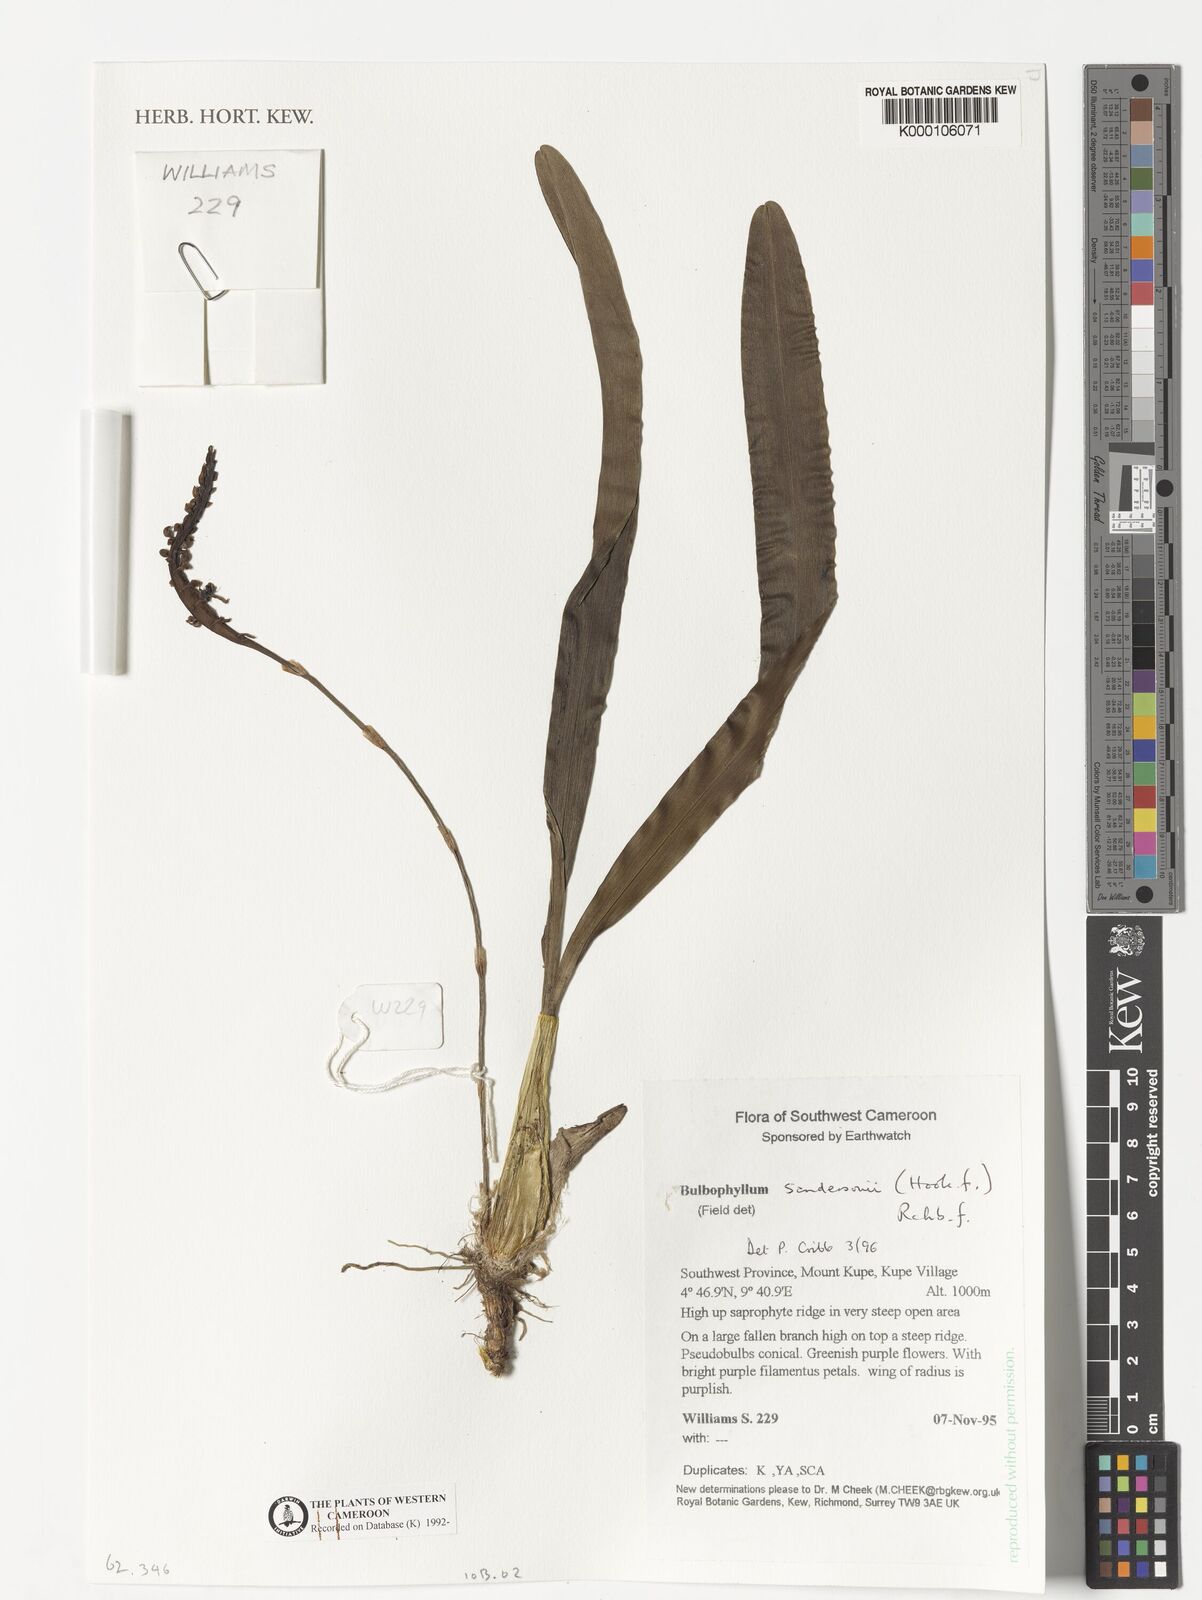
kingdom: Plantae
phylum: Tracheophyta
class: Liliopsida
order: Asparagales
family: Orchidaceae
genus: Bulbophyllum
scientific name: Bulbophyllum sandersonii
